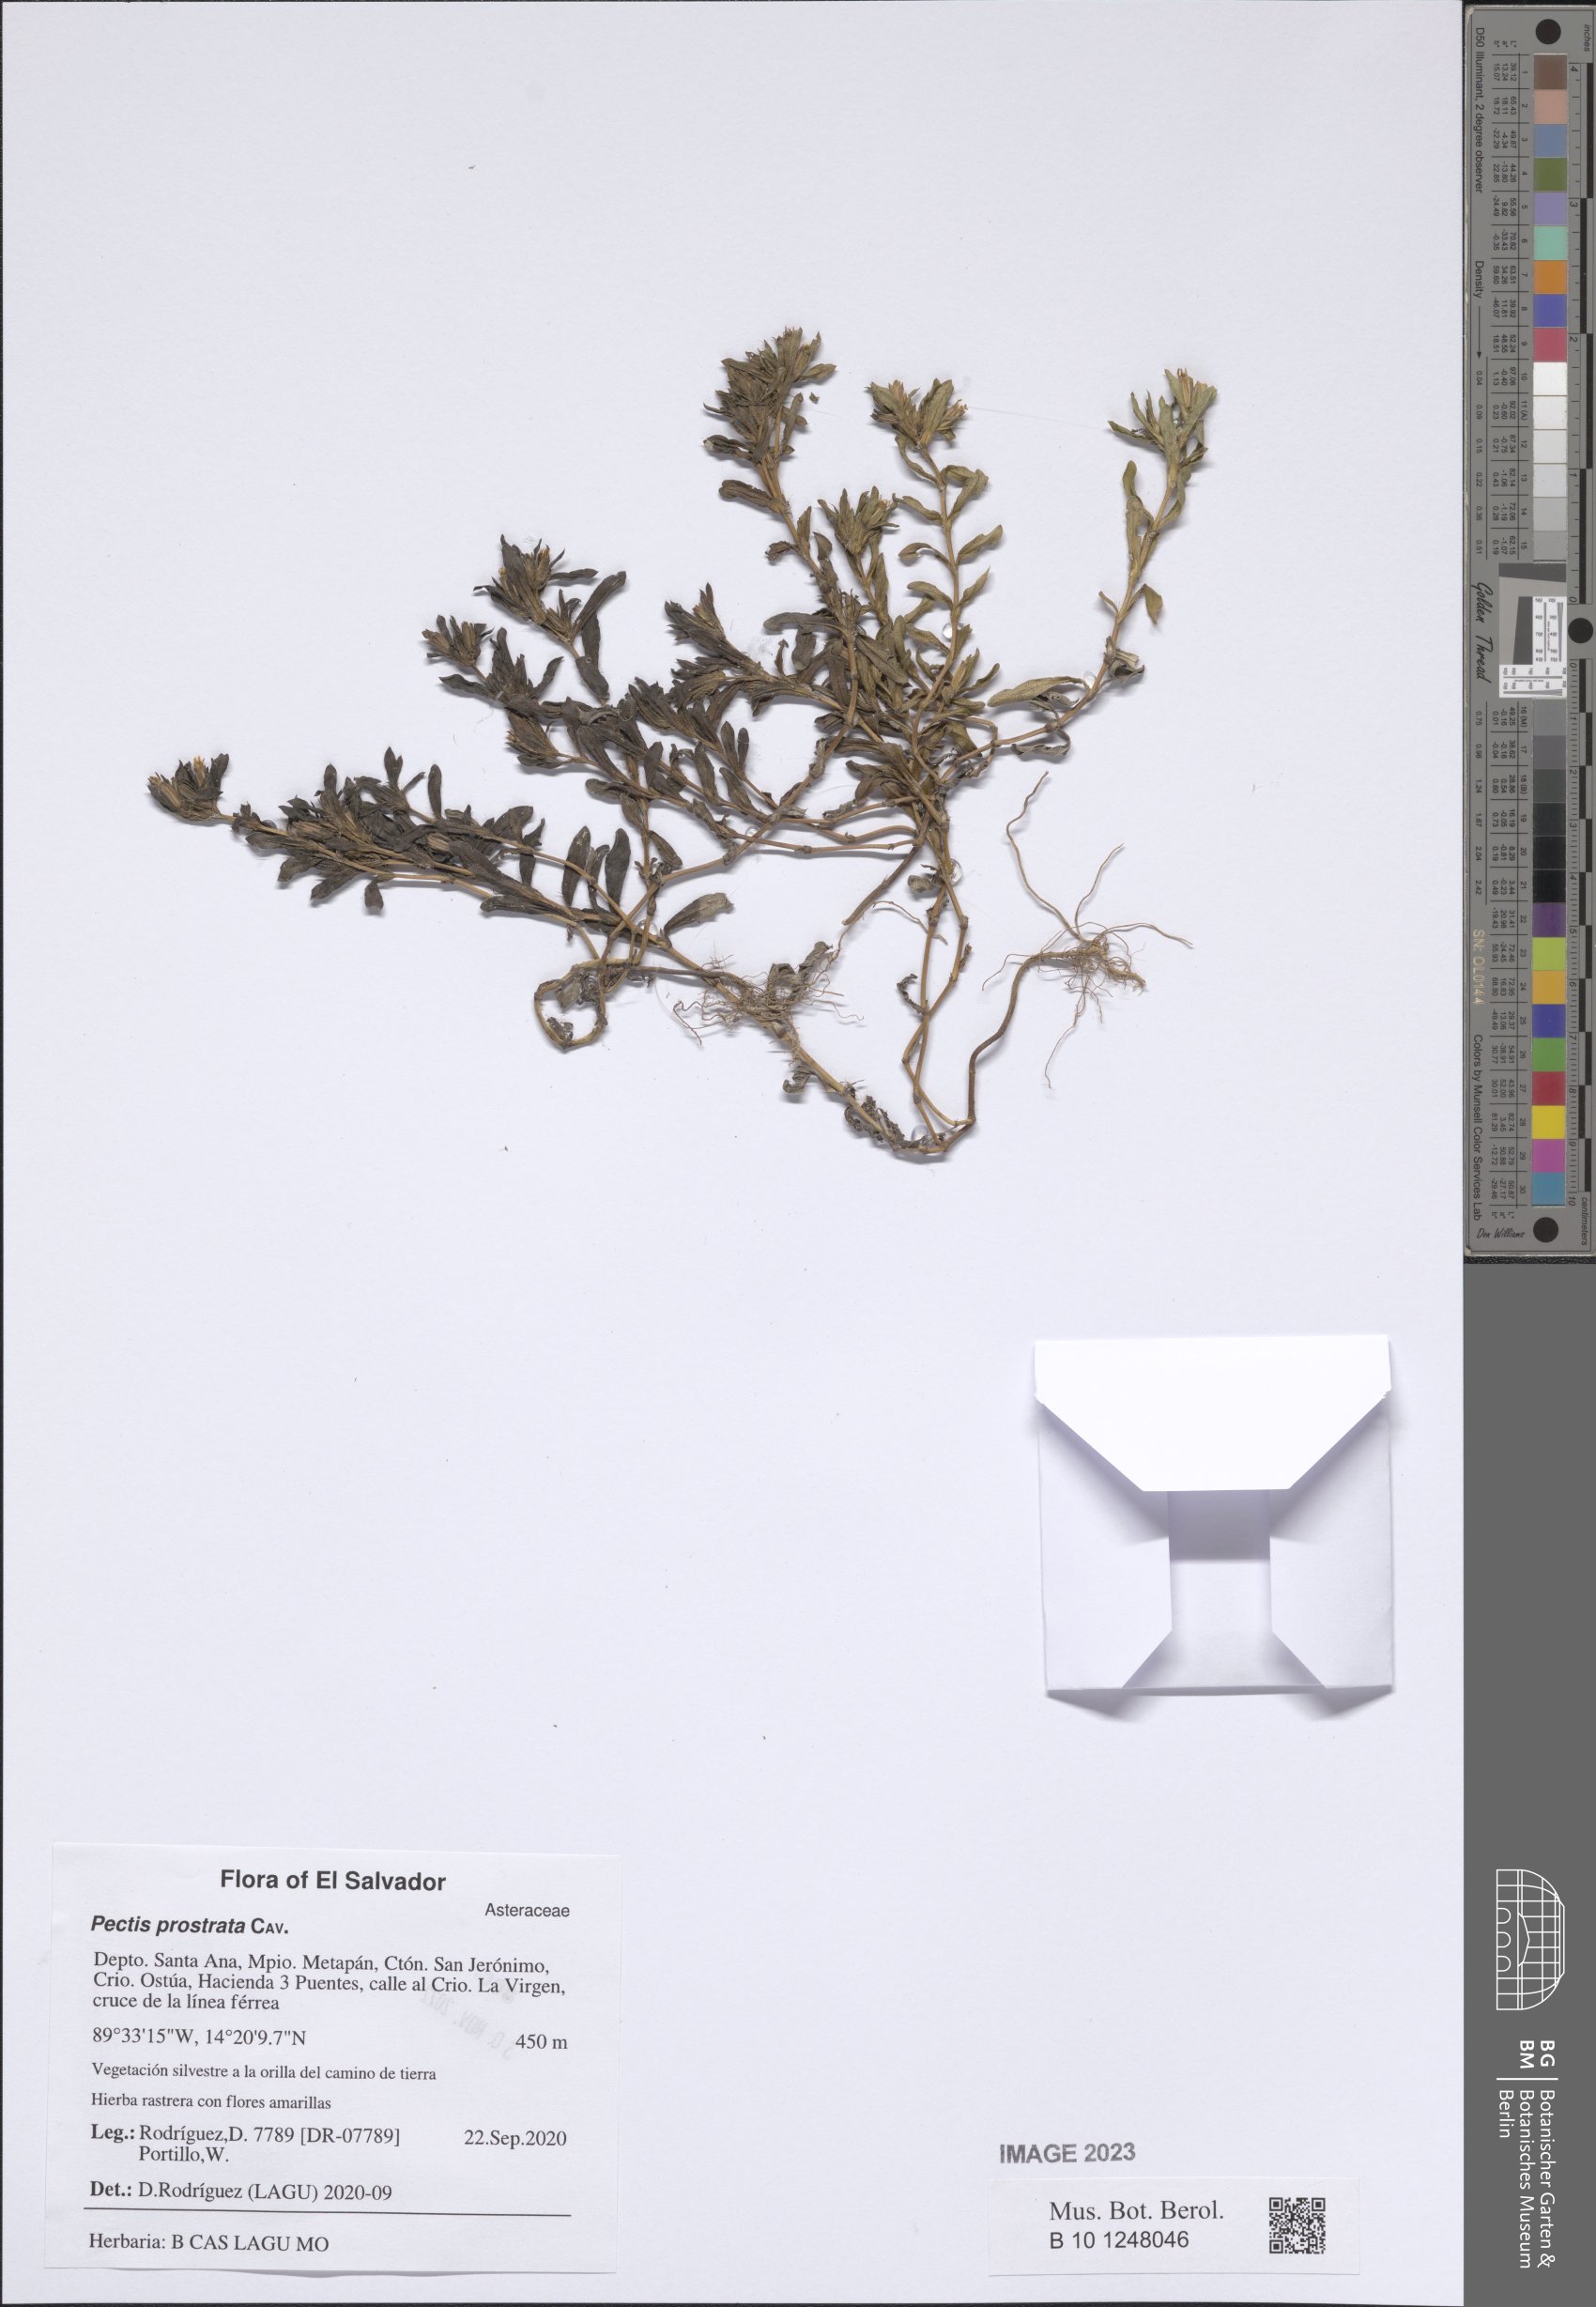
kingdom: Plantae
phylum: Tracheophyta
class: Magnoliopsida
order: Asterales
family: Asteraceae
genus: Pectis
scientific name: Pectis prostrata
